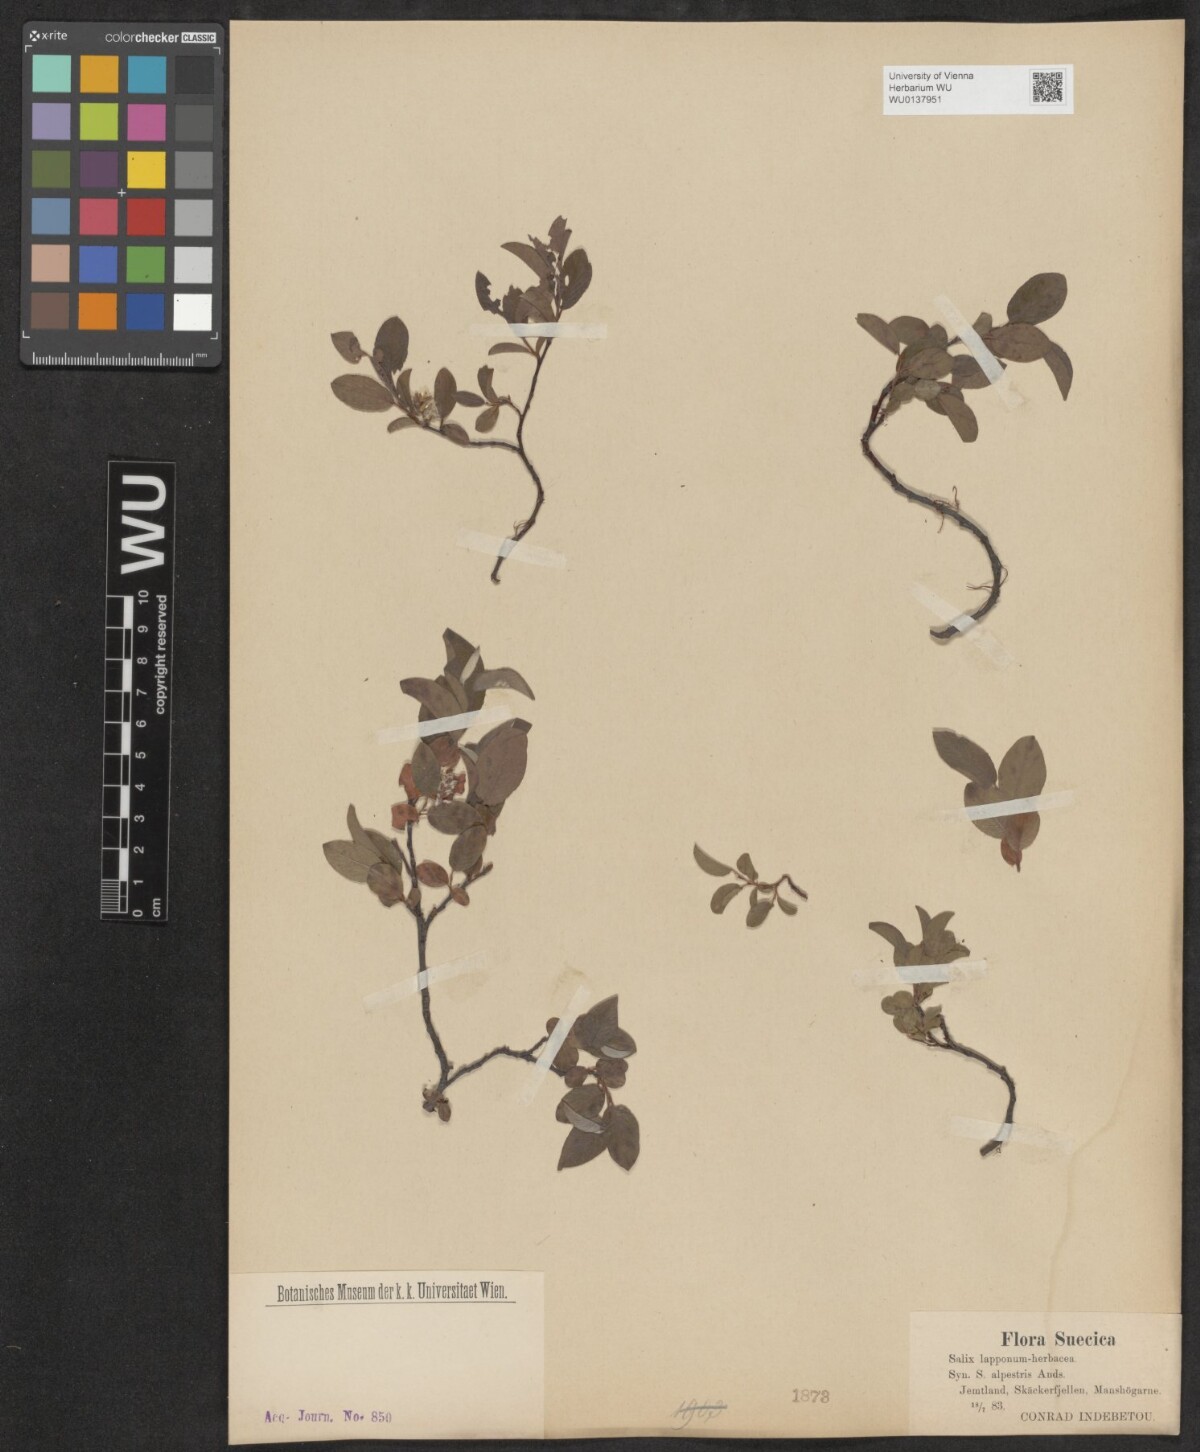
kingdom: Plantae
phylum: Tracheophyta
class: Magnoliopsida
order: Malpighiales
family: Salicaceae
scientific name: Salicaceae
